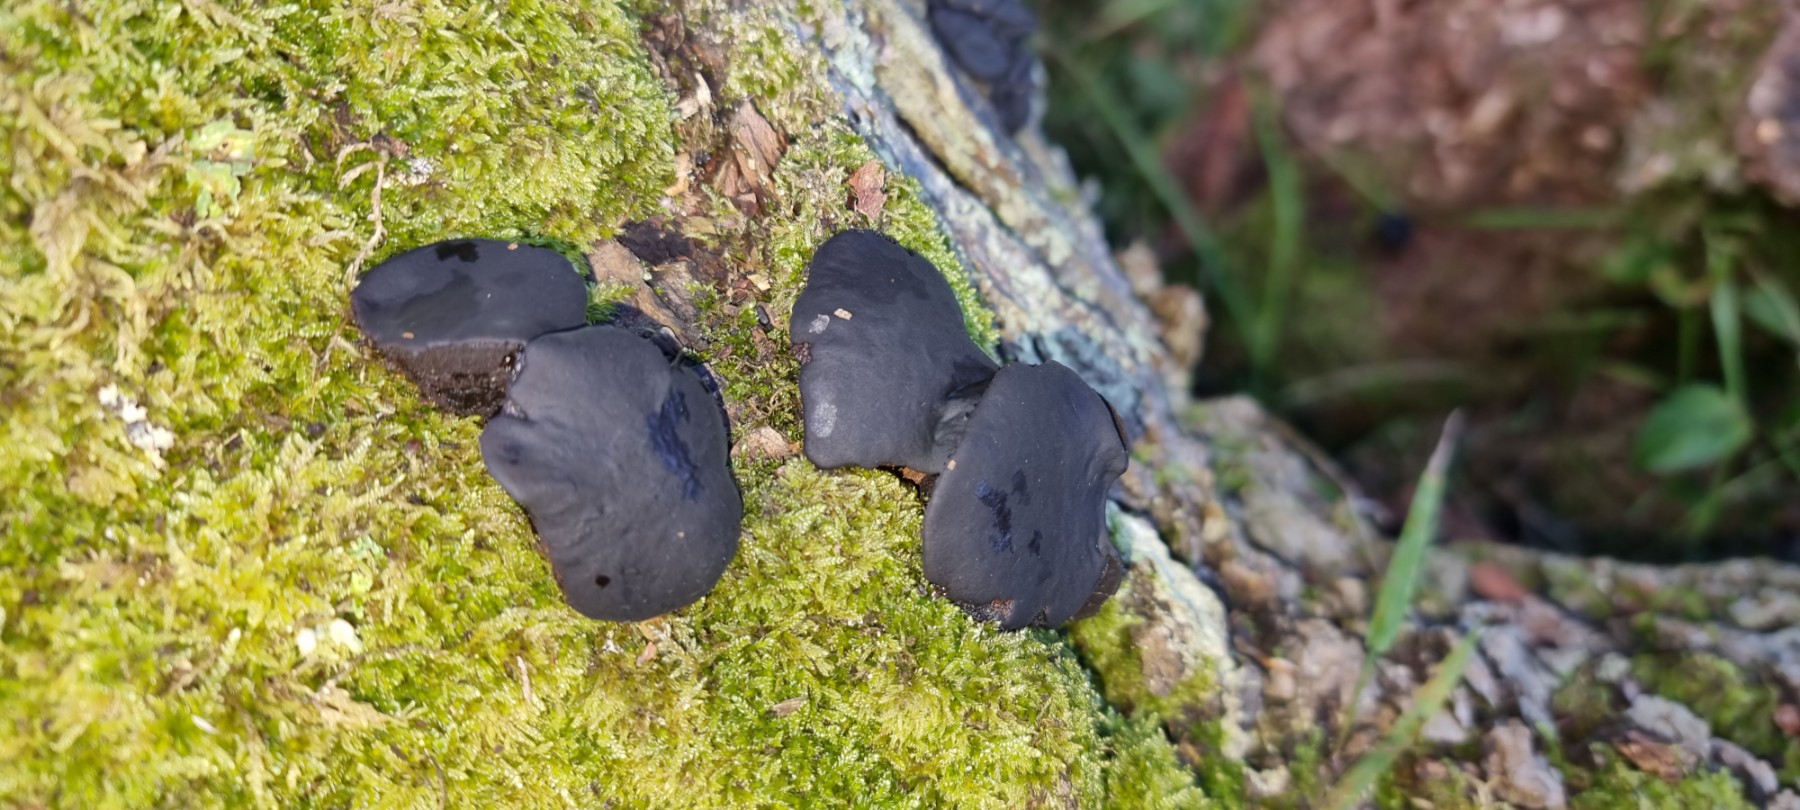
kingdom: Fungi
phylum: Ascomycota
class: Leotiomycetes
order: Phacidiales
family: Phacidiaceae
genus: Bulgaria
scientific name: Bulgaria inquinans
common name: afsmittende topsvamp
